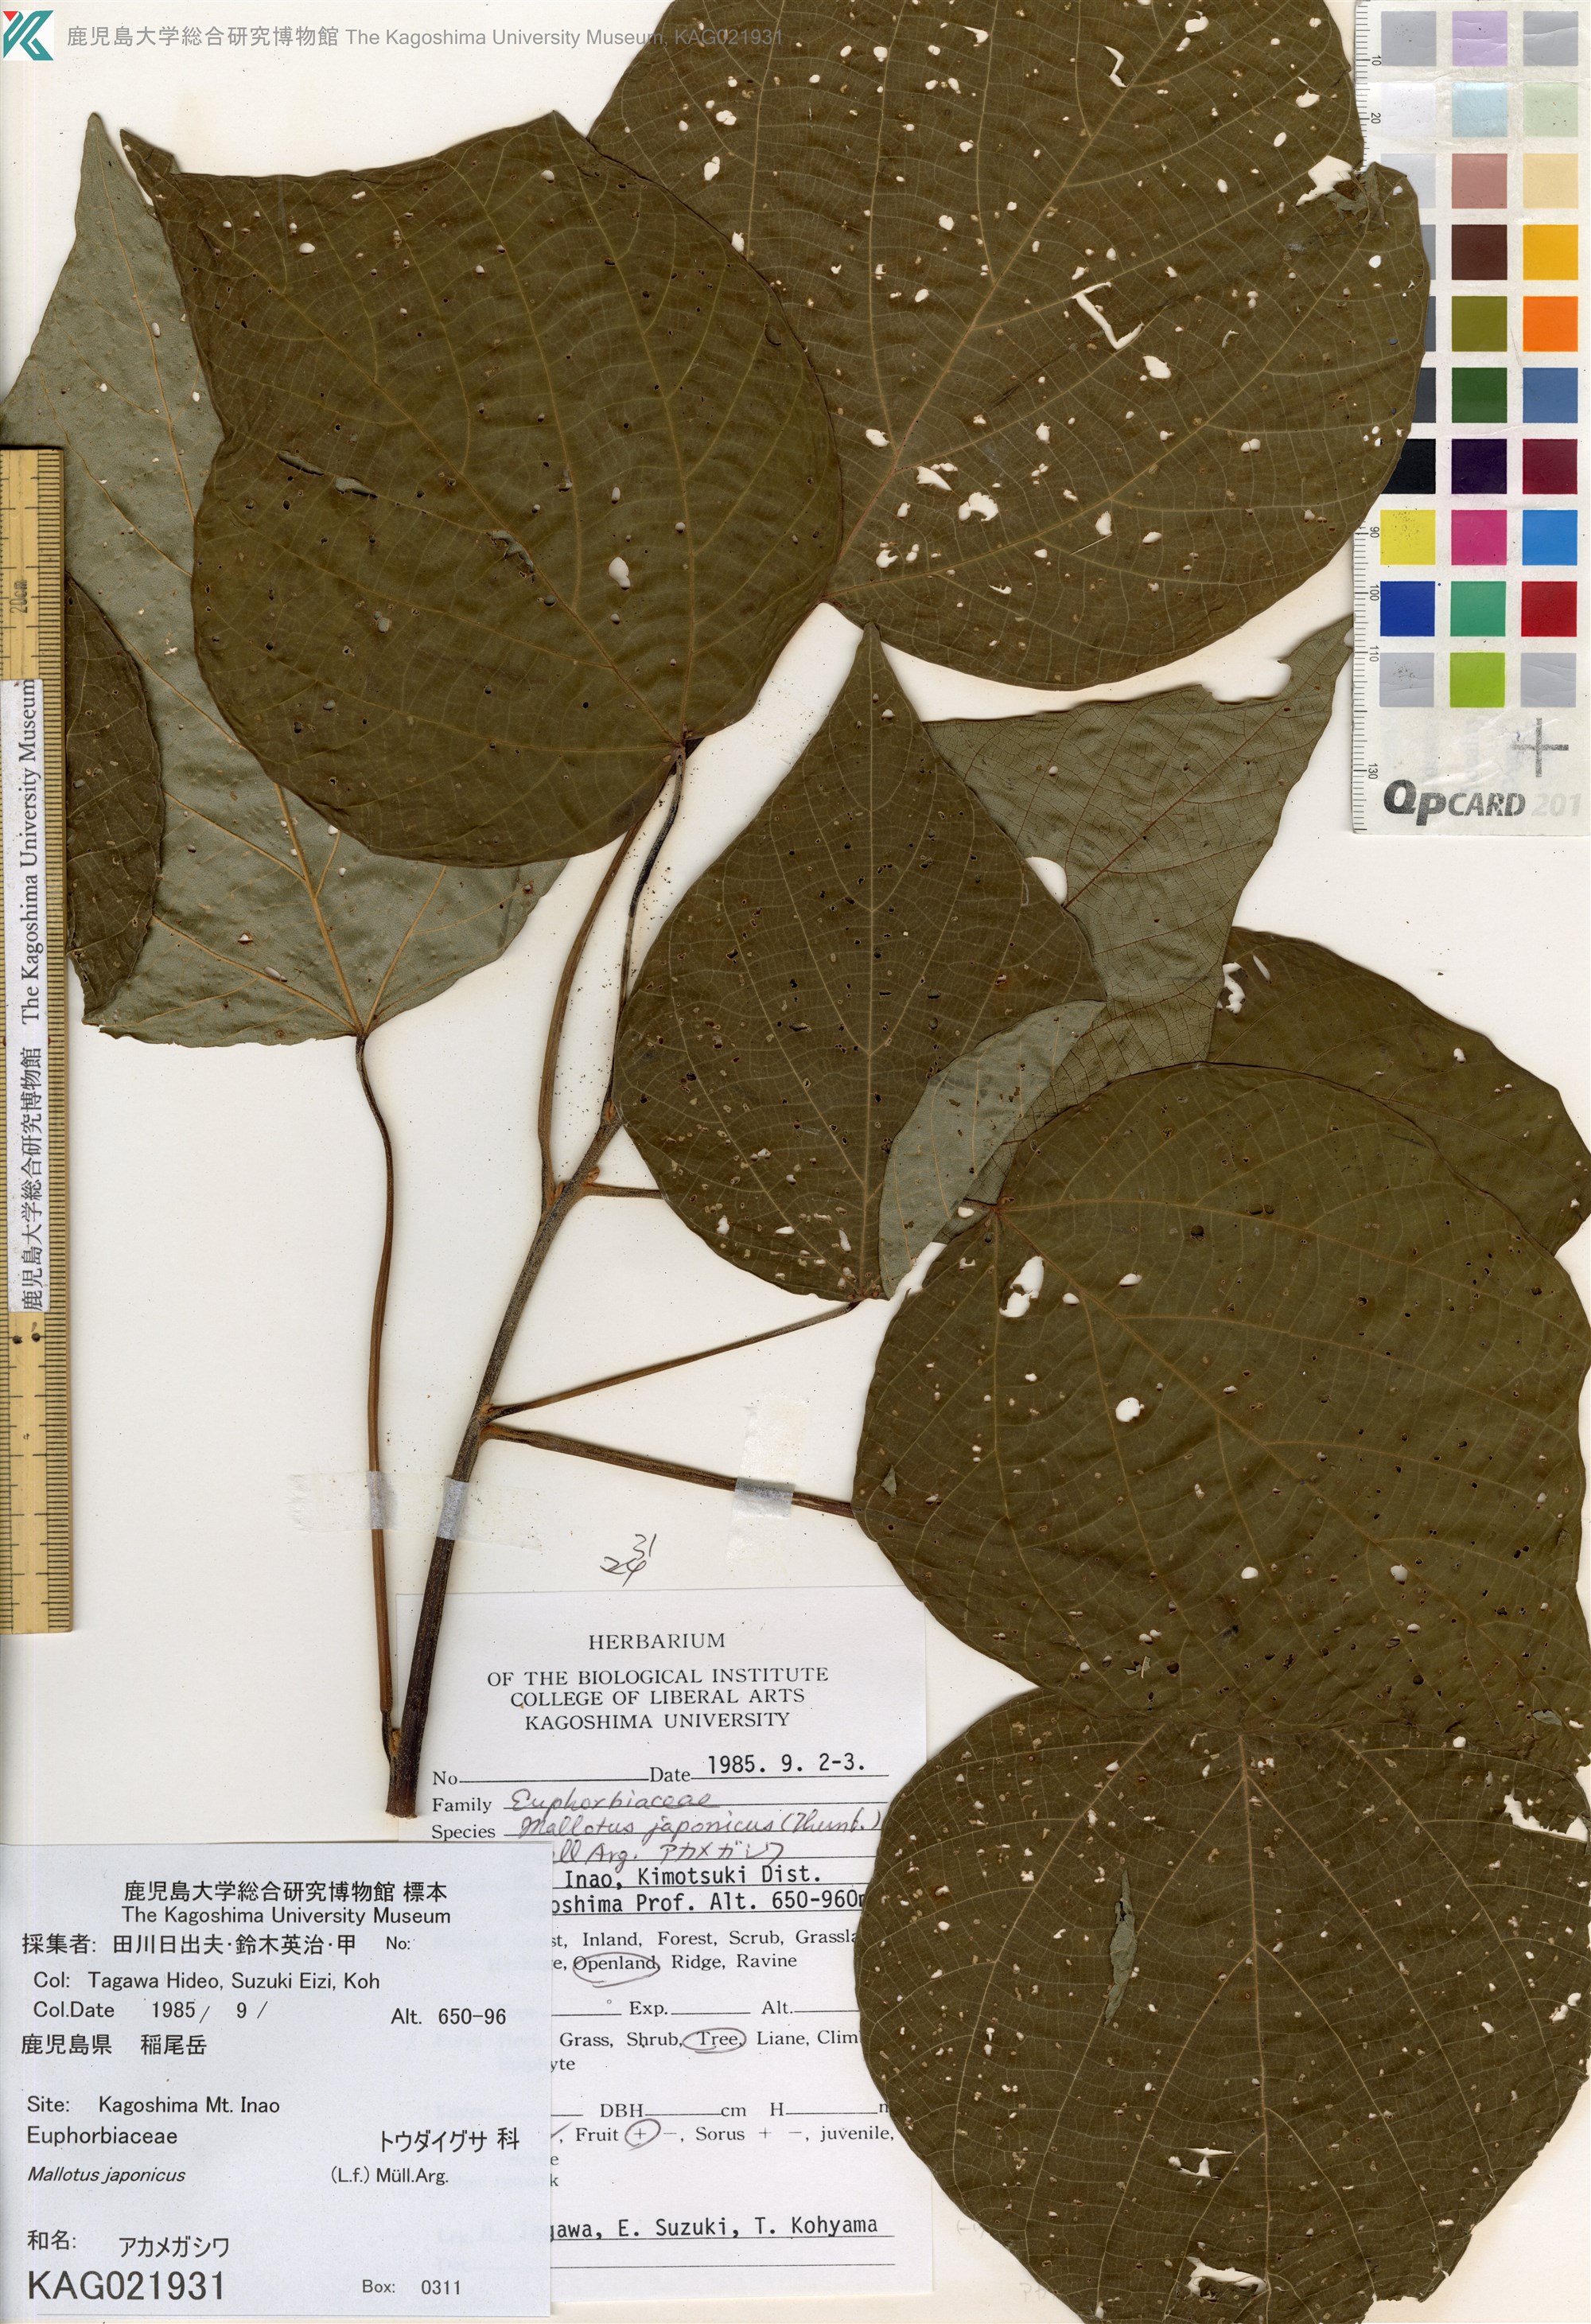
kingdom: Plantae
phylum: Tracheophyta
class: Magnoliopsida
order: Malpighiales
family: Euphorbiaceae
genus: Mallotus
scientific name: Mallotus japonicus
